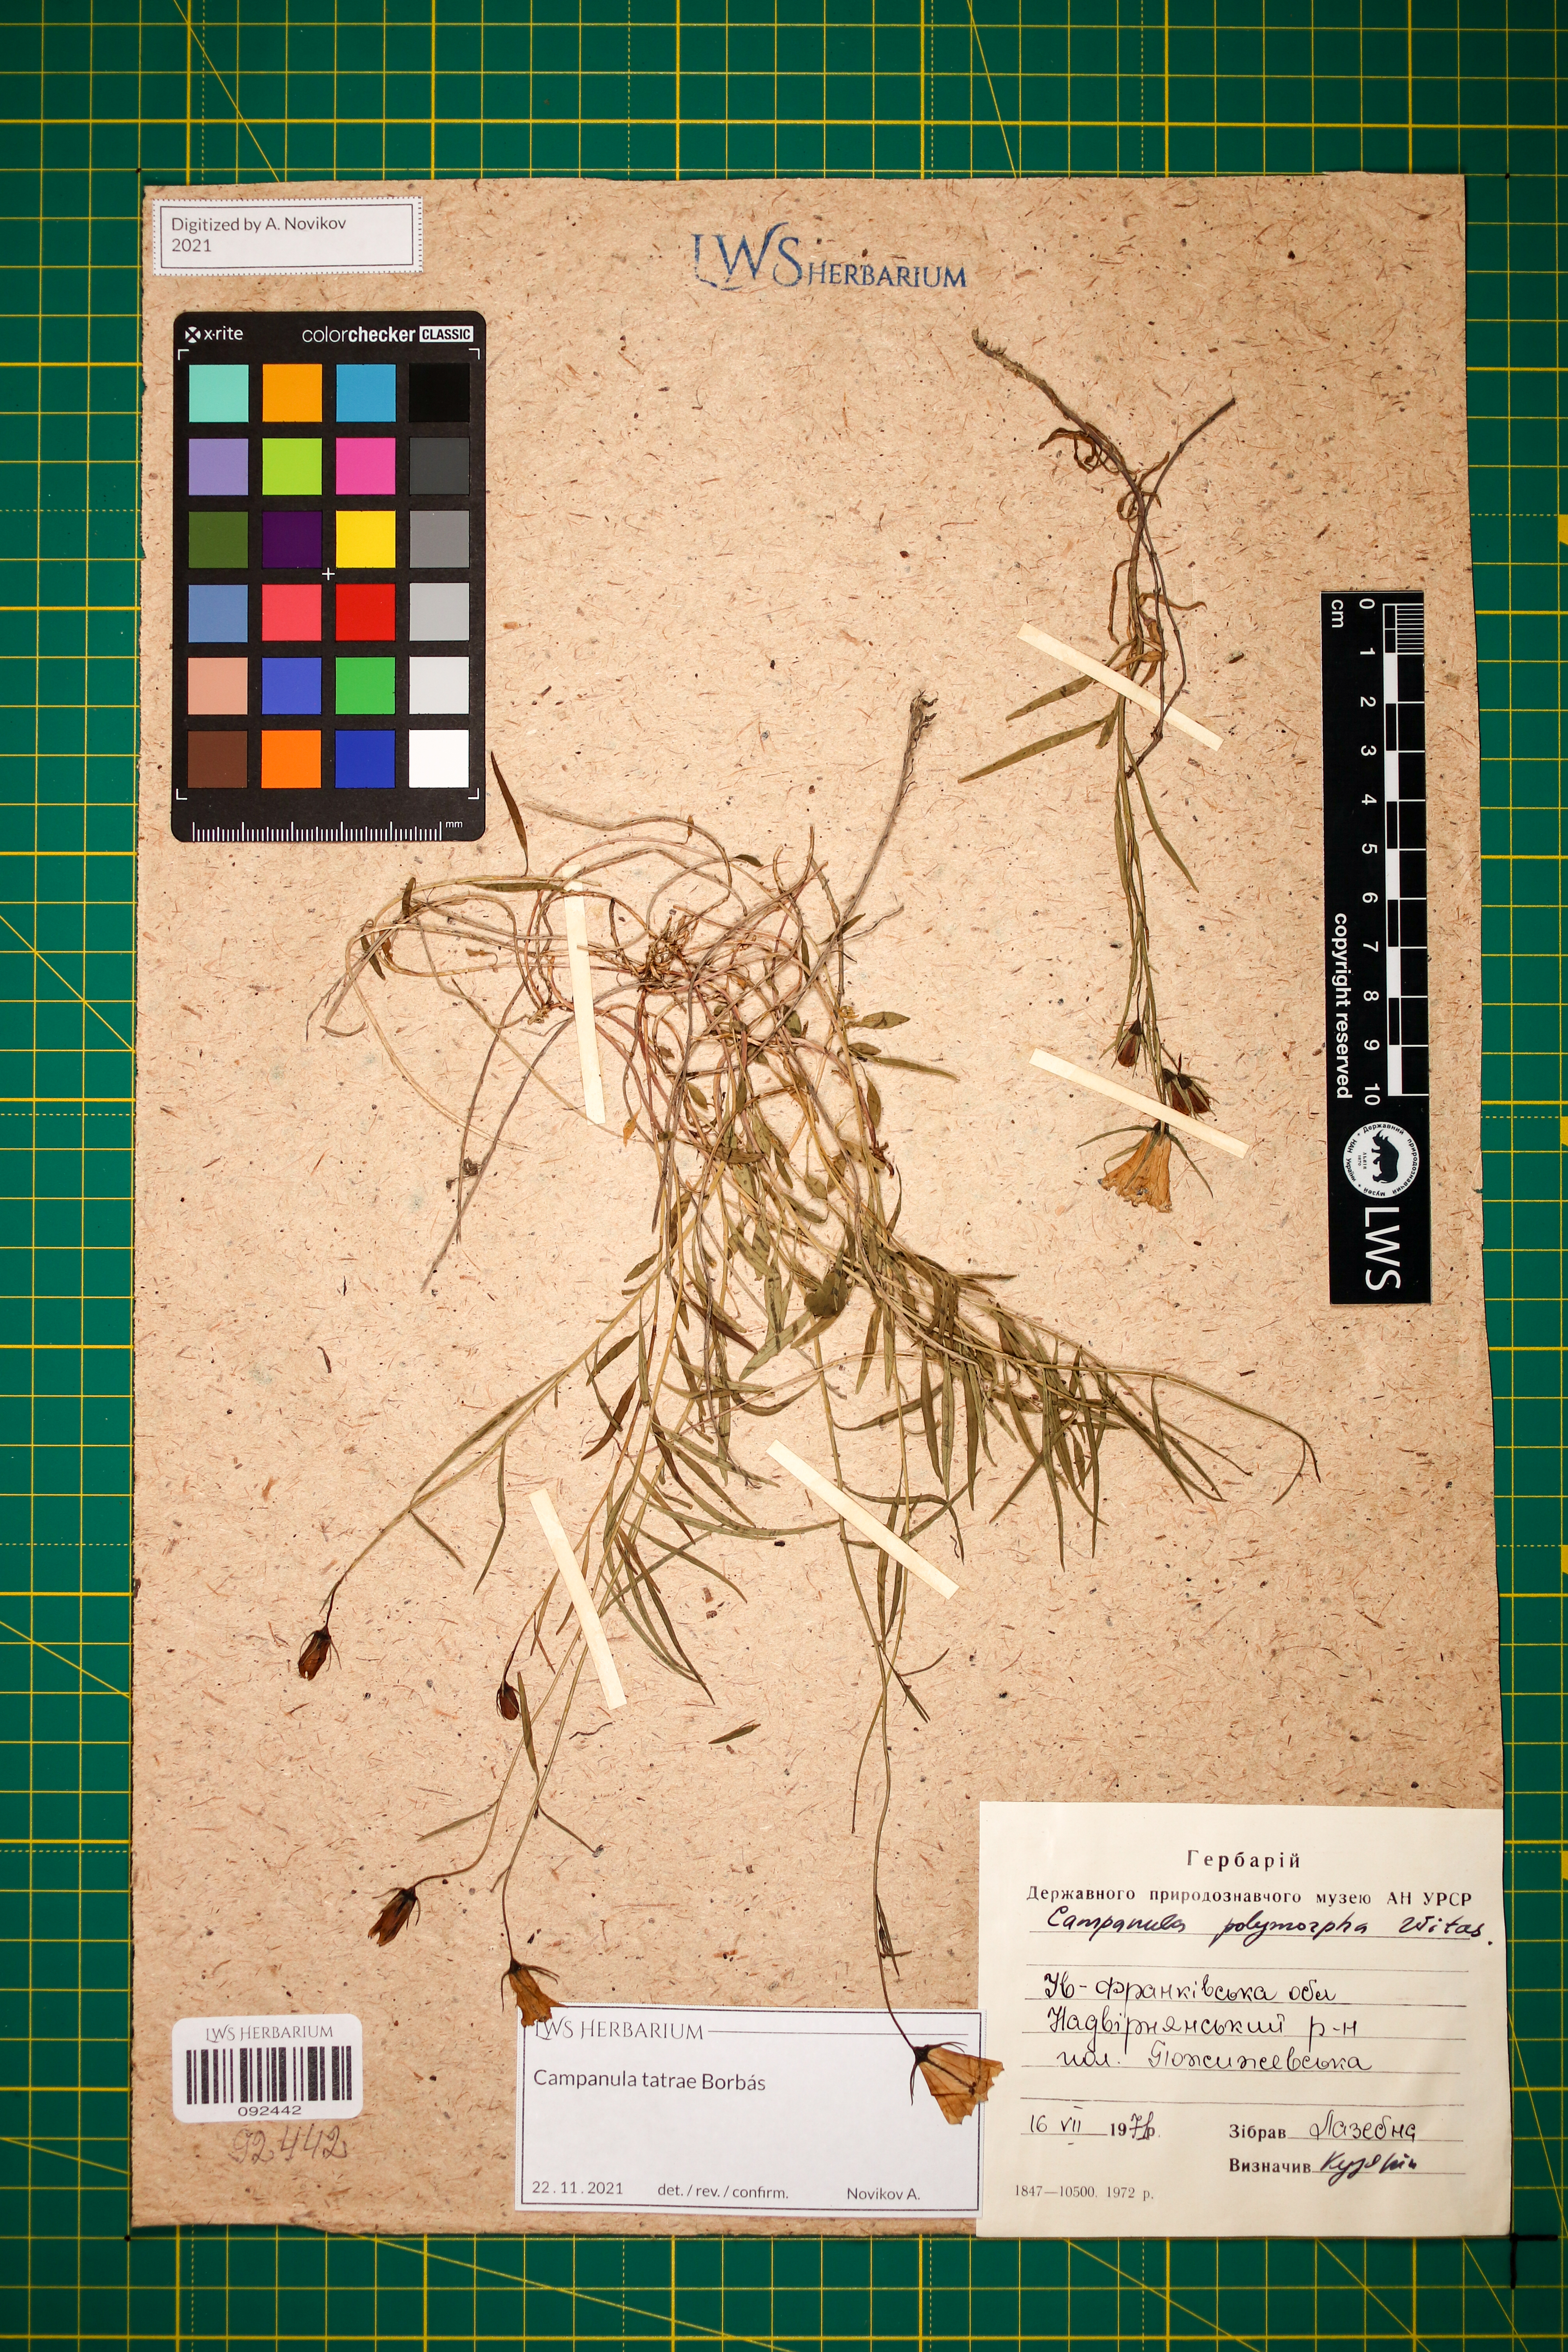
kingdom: Plantae
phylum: Tracheophyta
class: Magnoliopsida
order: Asterales
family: Campanulaceae
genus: Campanula
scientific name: Campanula tatrae
